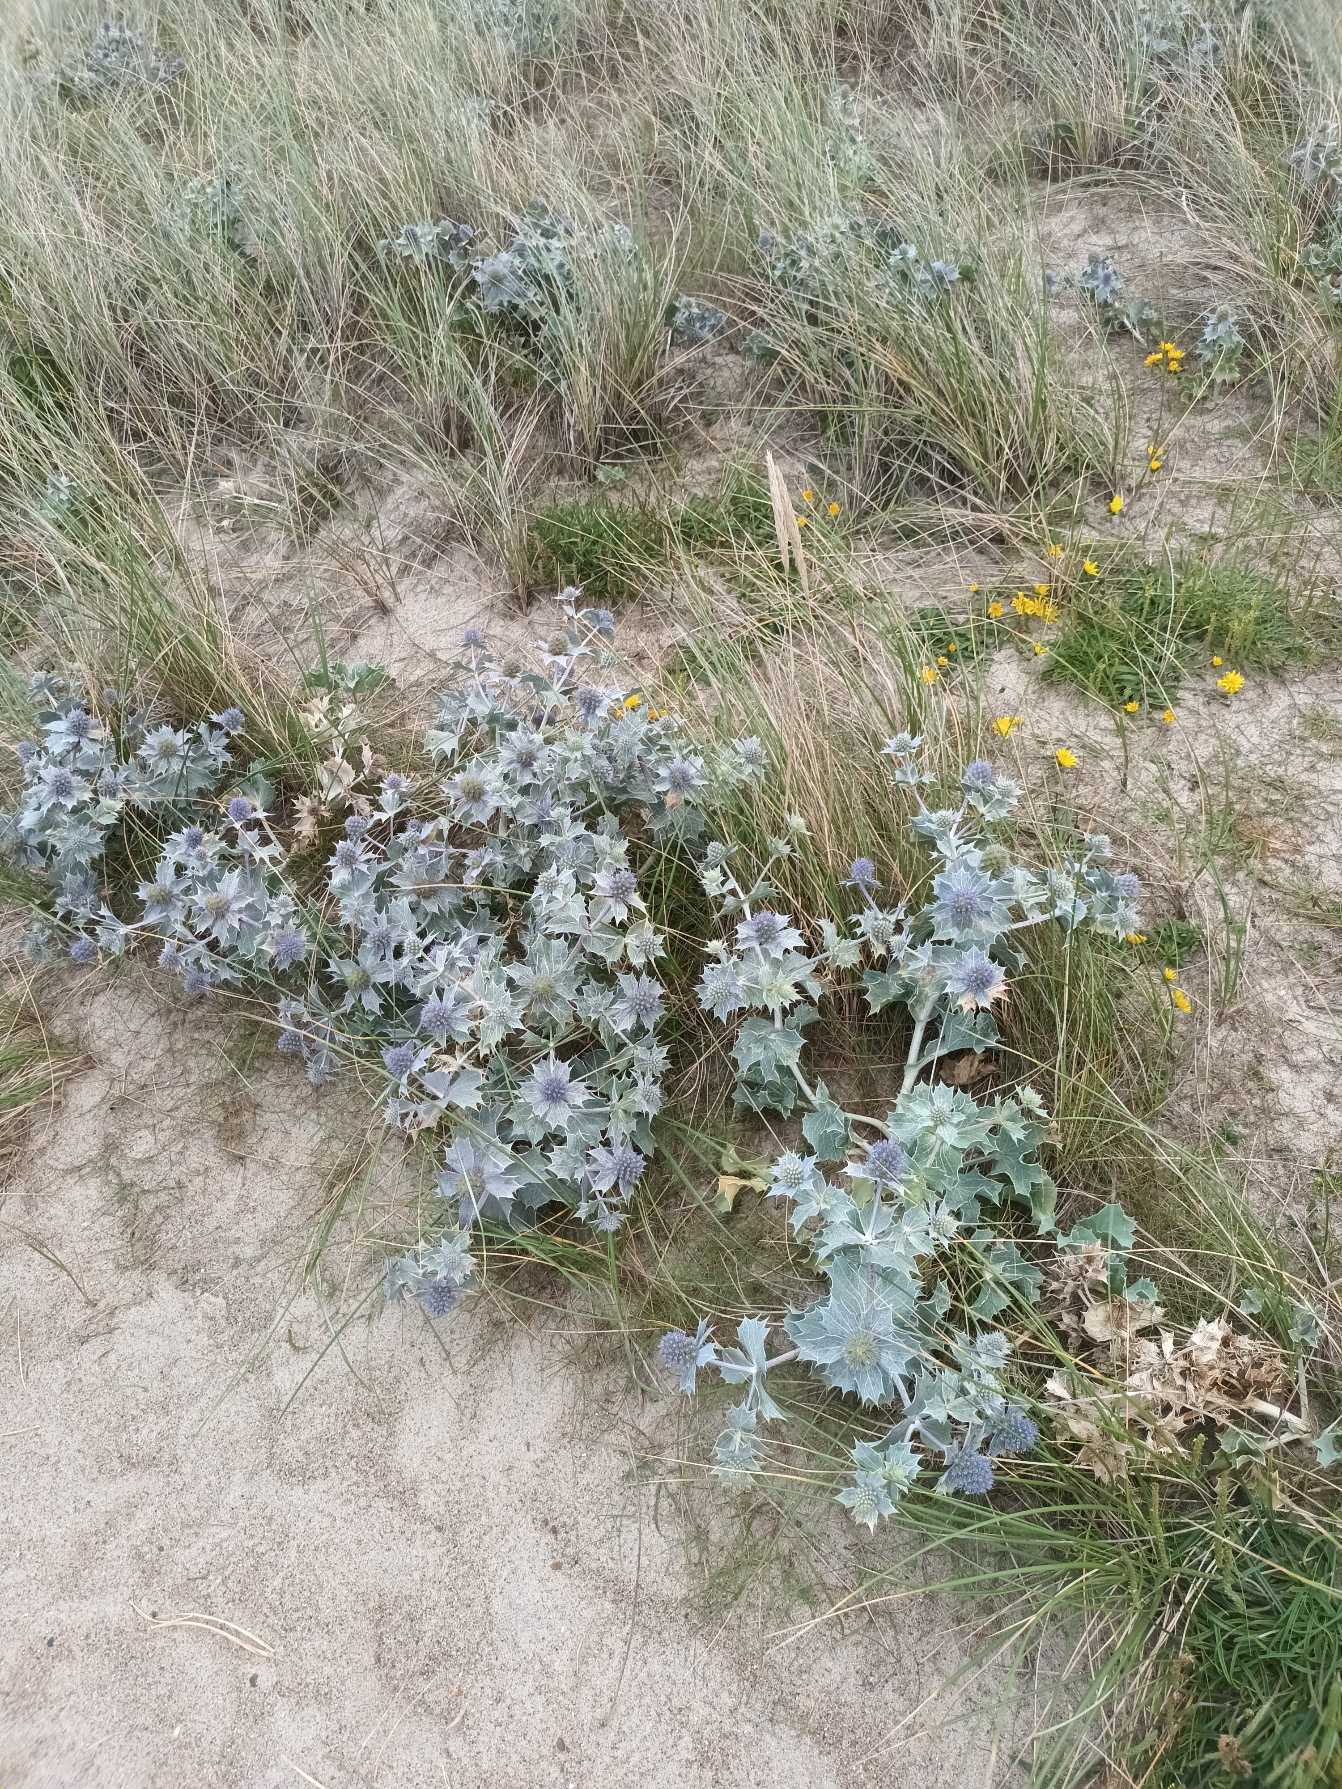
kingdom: Plantae
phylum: Tracheophyta
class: Magnoliopsida
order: Apiales
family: Apiaceae
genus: Eryngium
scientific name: Eryngium maritimum
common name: Strand-mandstro
